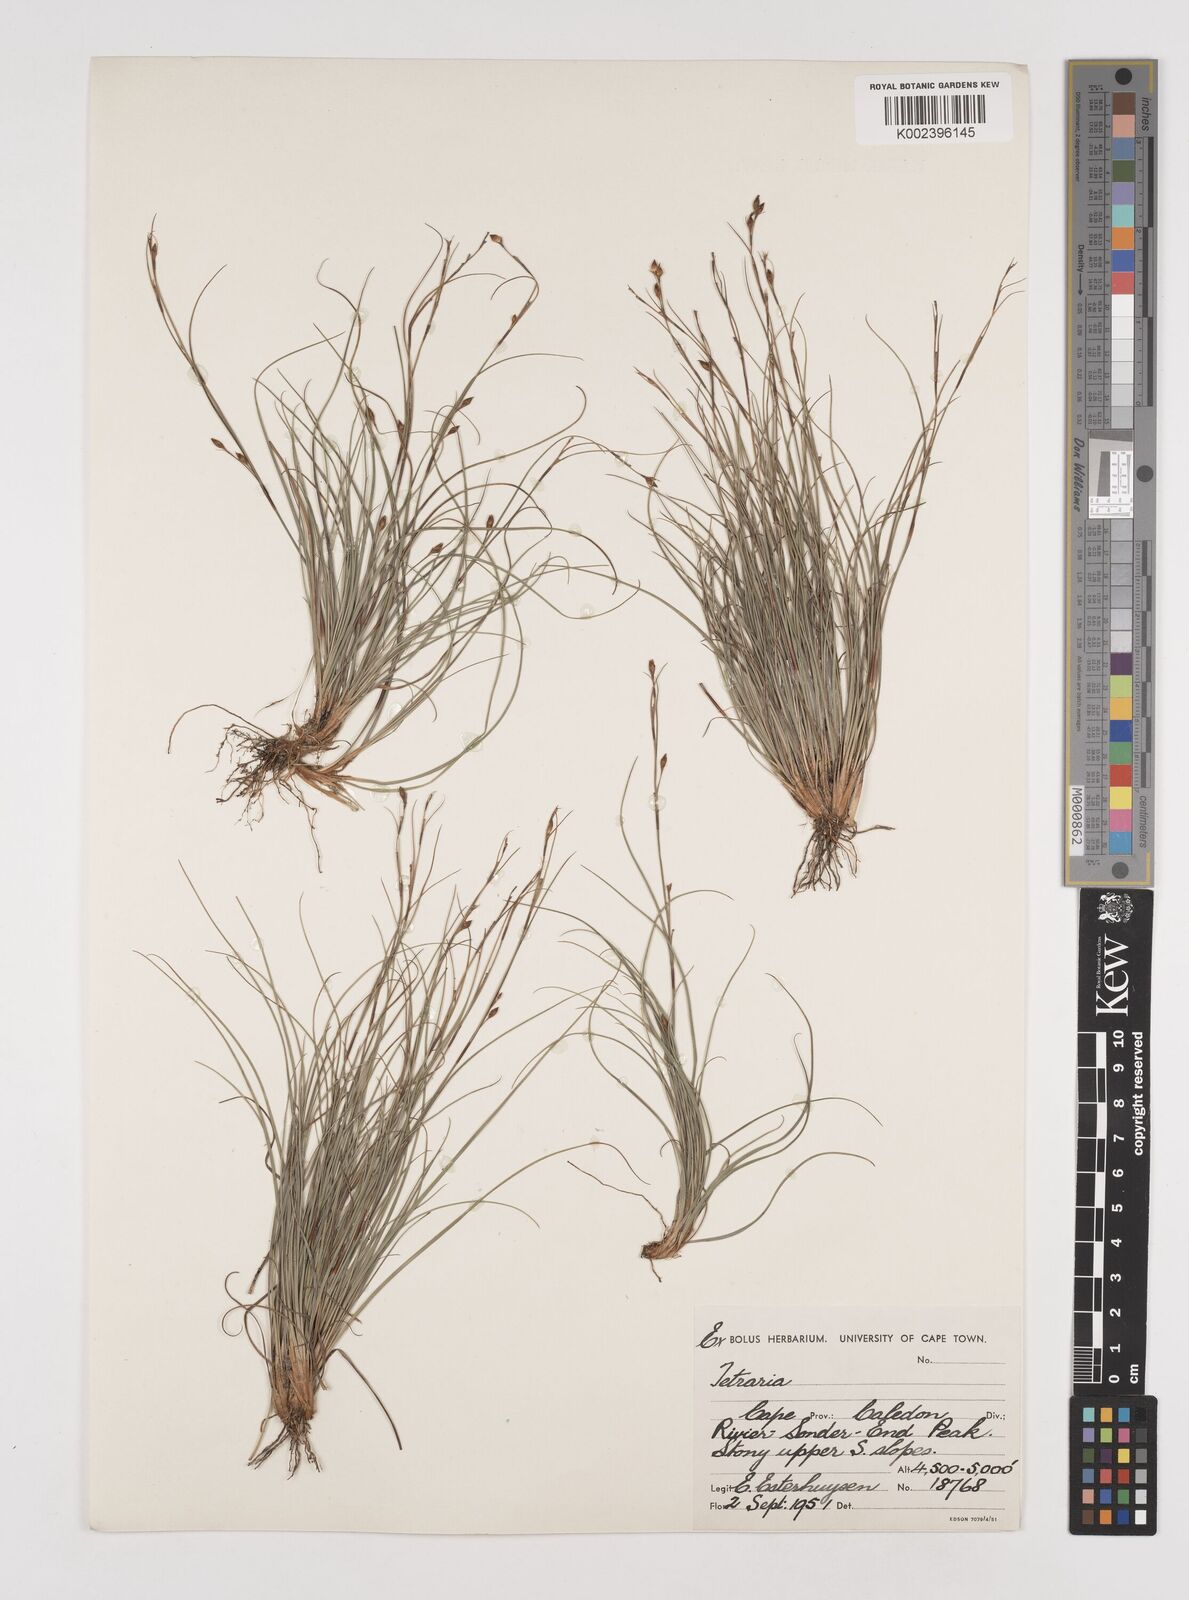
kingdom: Plantae
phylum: Tracheophyta
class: Liliopsida
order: Poales
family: Cyperaceae
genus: Tetraria
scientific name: Tetraria burmanni
